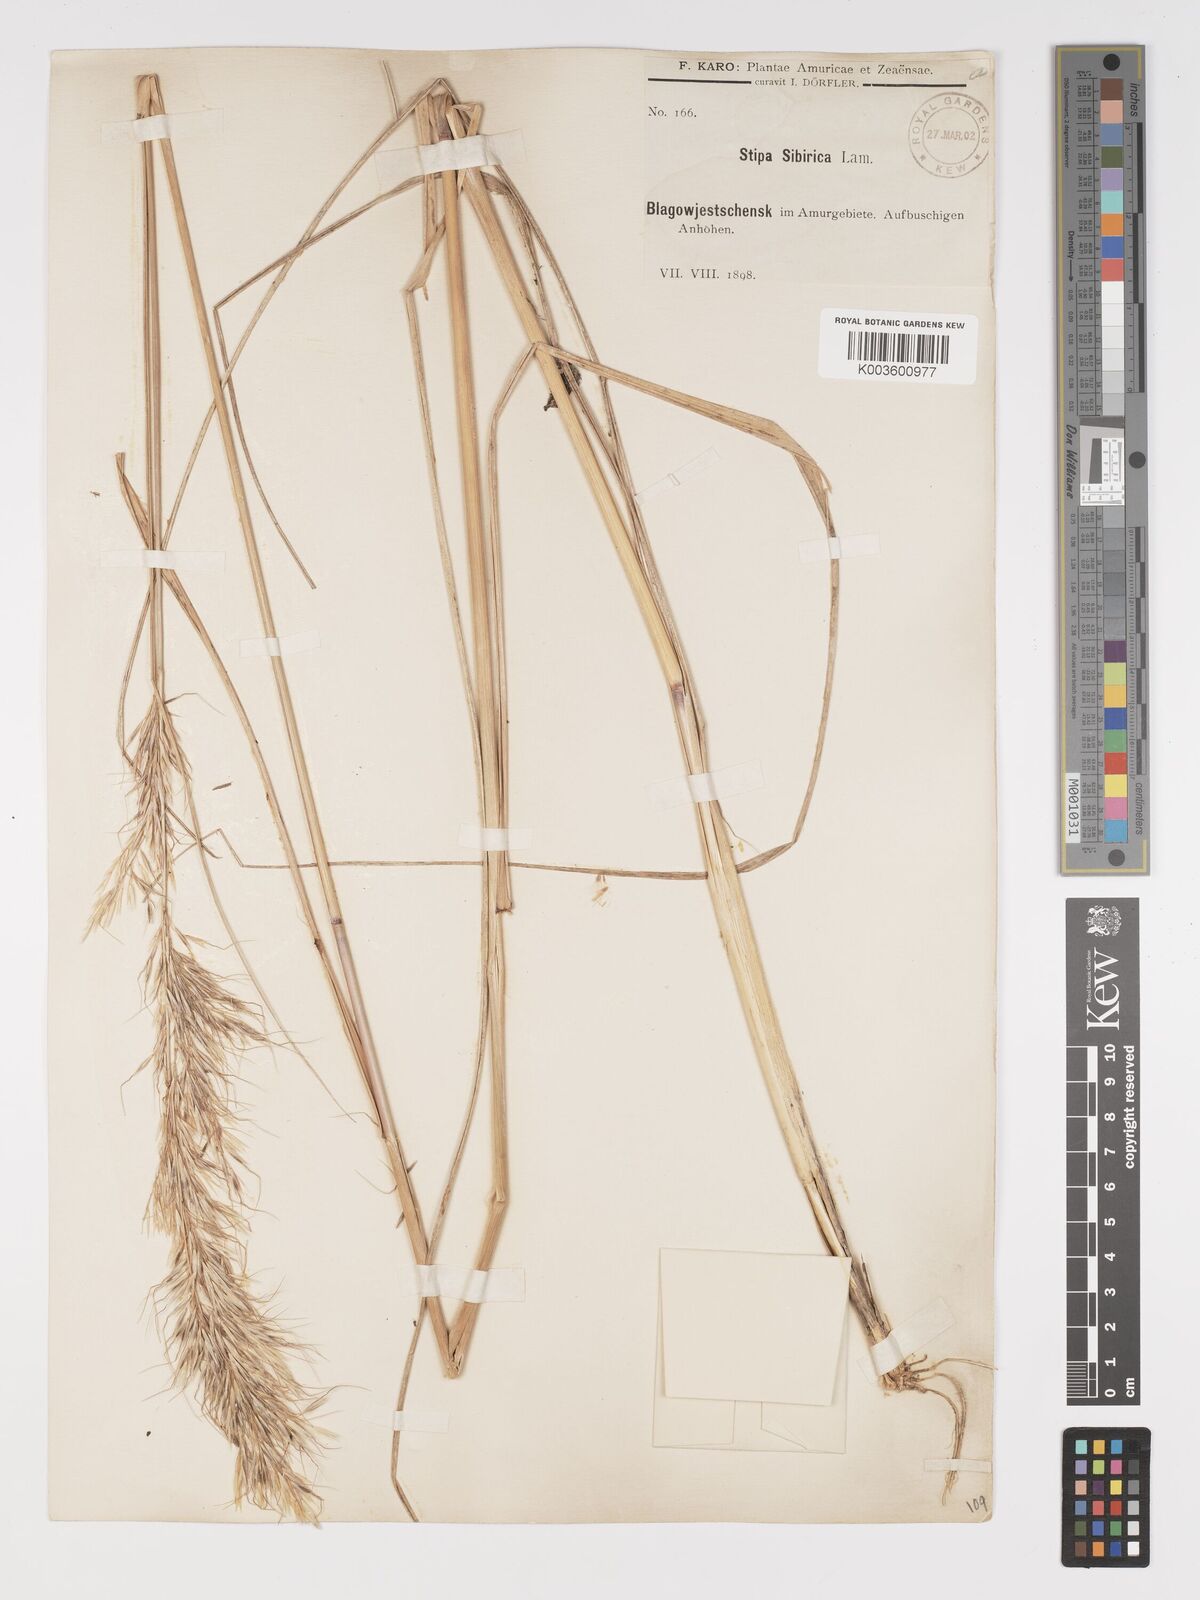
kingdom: Plantae
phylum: Tracheophyta
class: Liliopsida
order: Poales
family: Poaceae
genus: Achnatherum
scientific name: Achnatherum sibiricum
